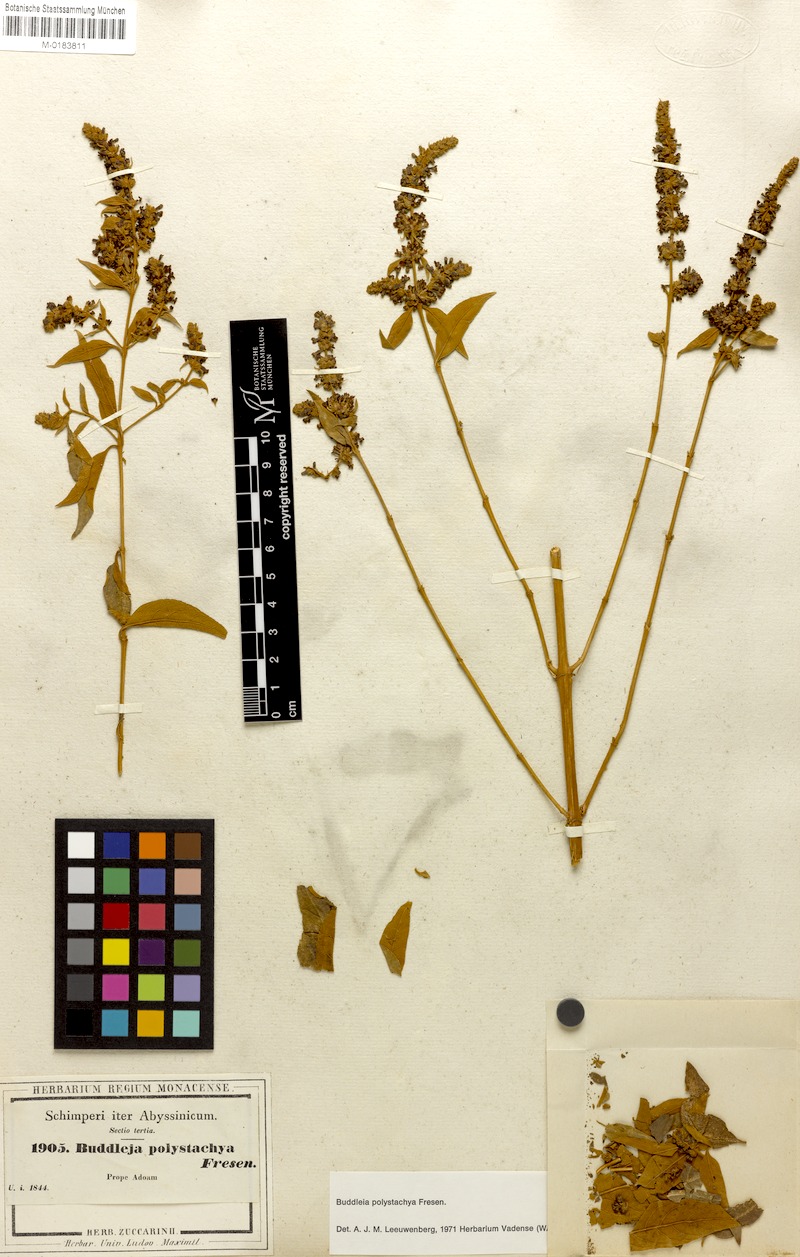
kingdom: Plantae
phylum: Tracheophyta
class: Magnoliopsida
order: Lamiales
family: Scrophulariaceae
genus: Buddleja
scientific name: Buddleja polystachya
